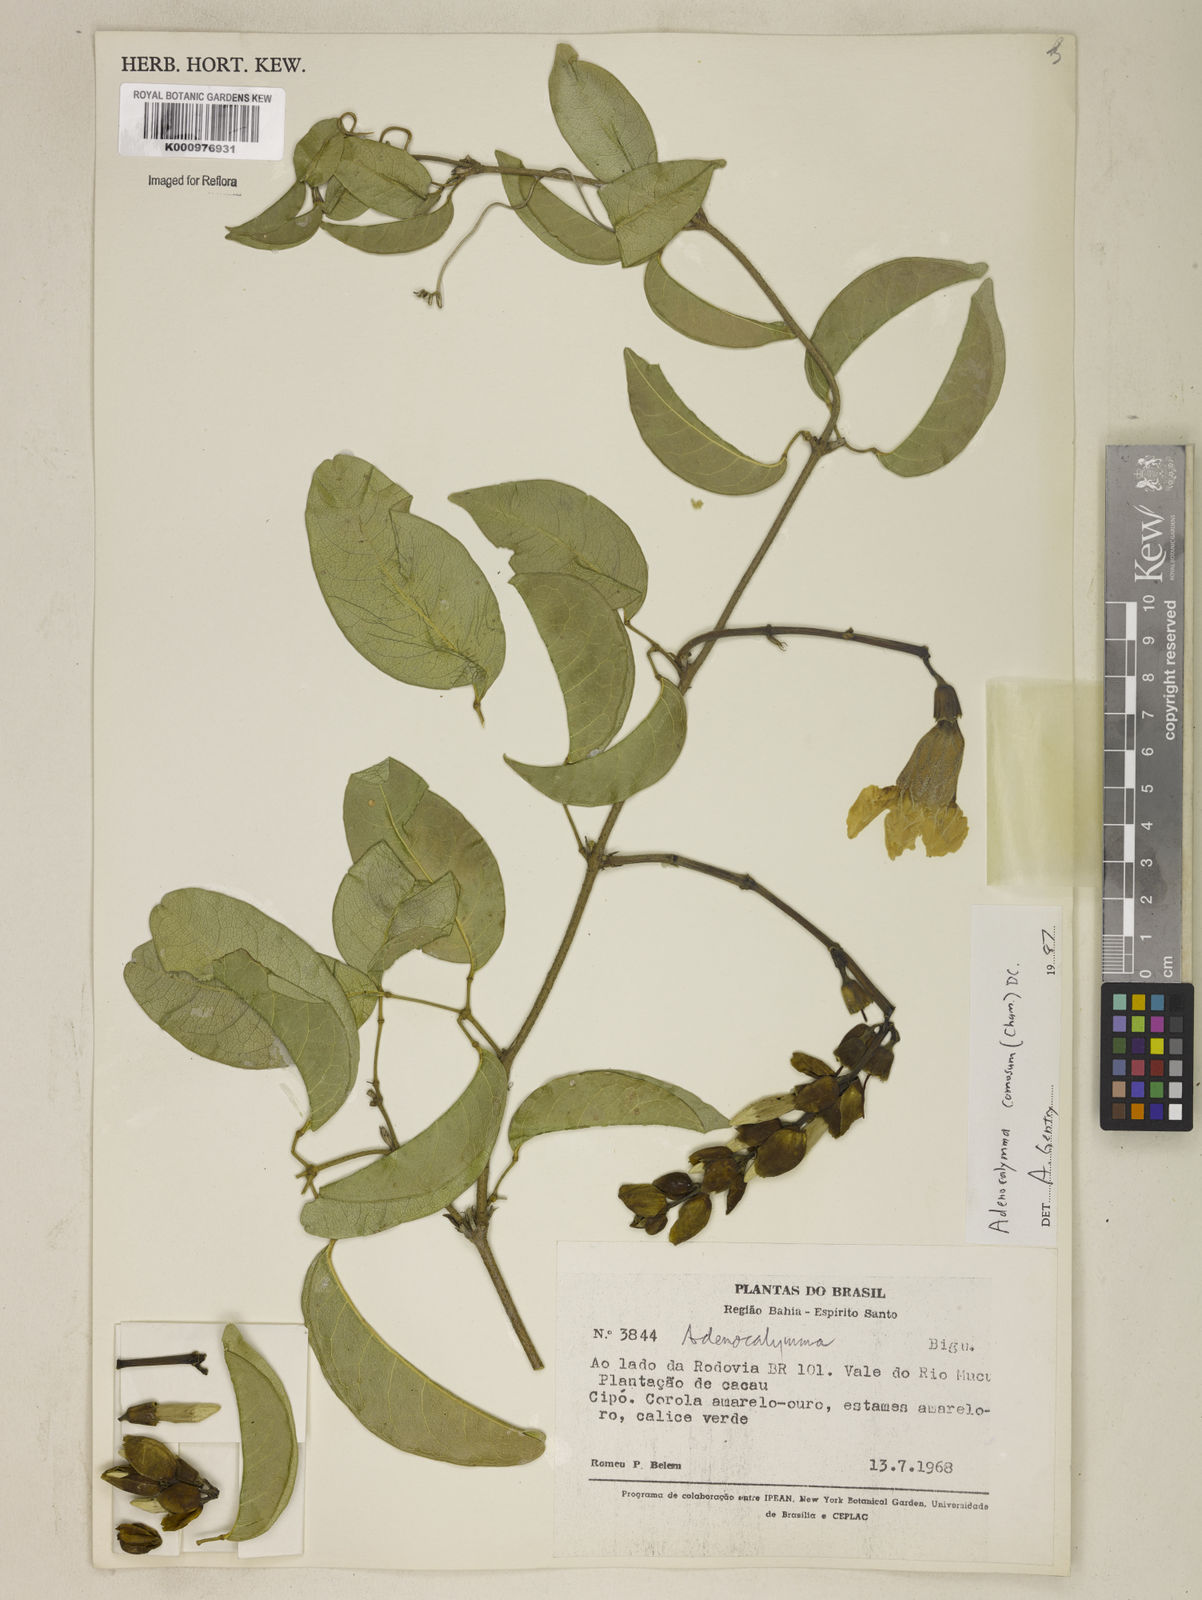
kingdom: Plantae
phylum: Tracheophyta
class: Magnoliopsida
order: Lamiales
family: Bignoniaceae
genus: Adenocalymma
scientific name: Adenocalymma acutissimum
